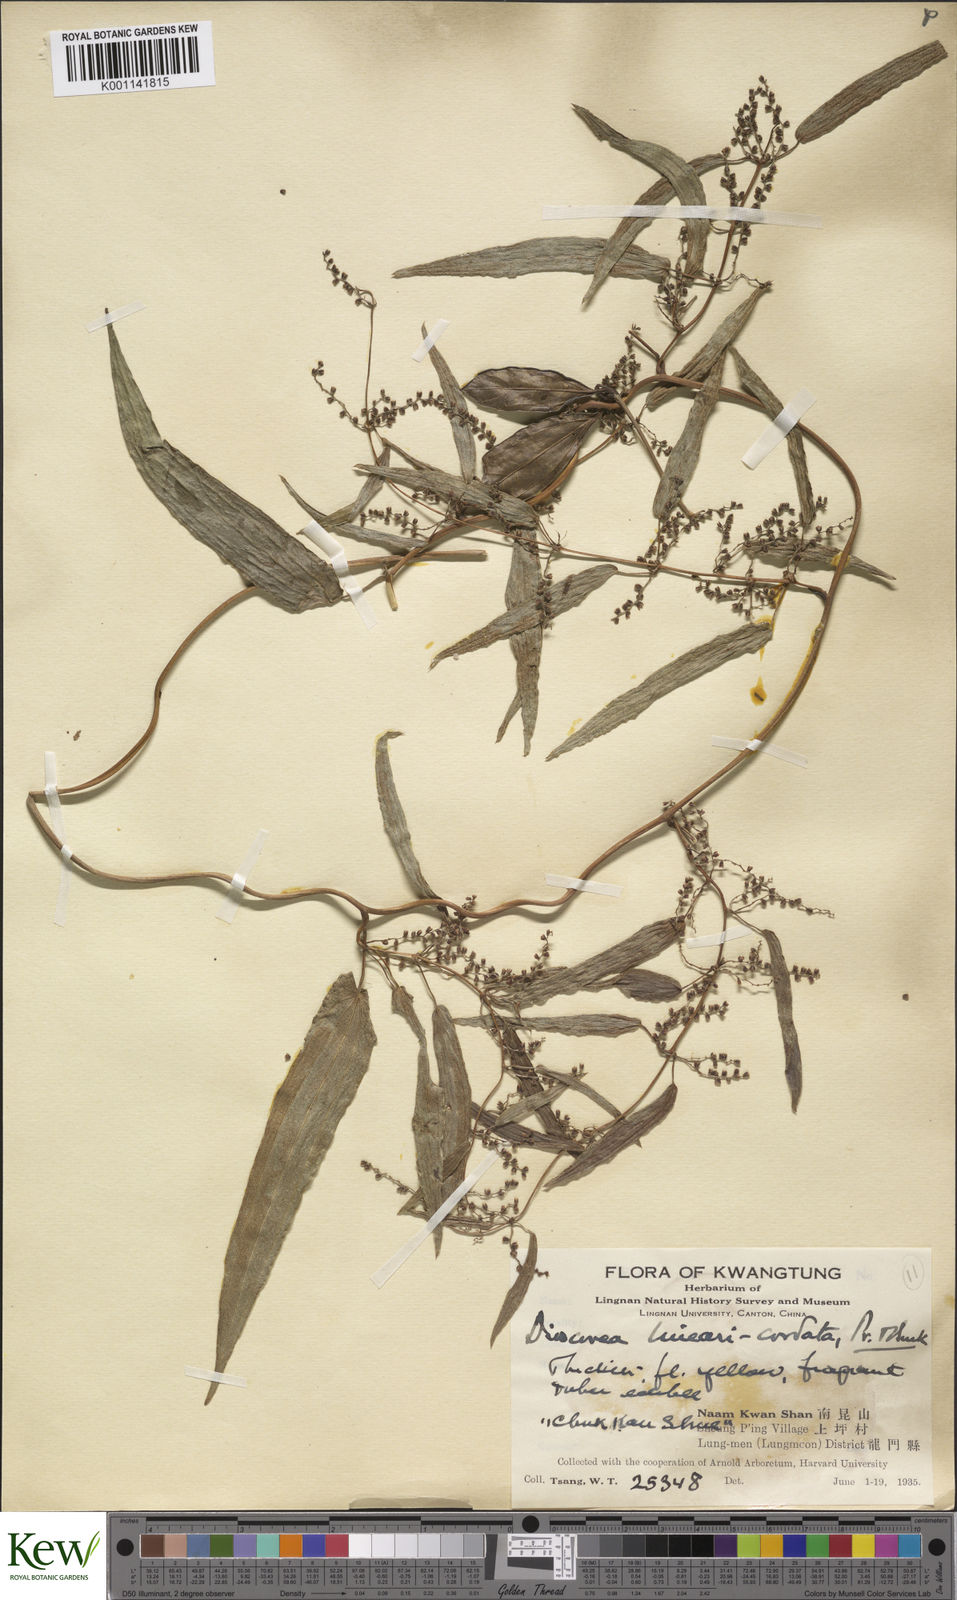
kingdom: Plantae
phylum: Tracheophyta
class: Liliopsida
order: Dioscoreales
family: Dioscoreaceae
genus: Dioscorea
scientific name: Dioscorea linearicordata
